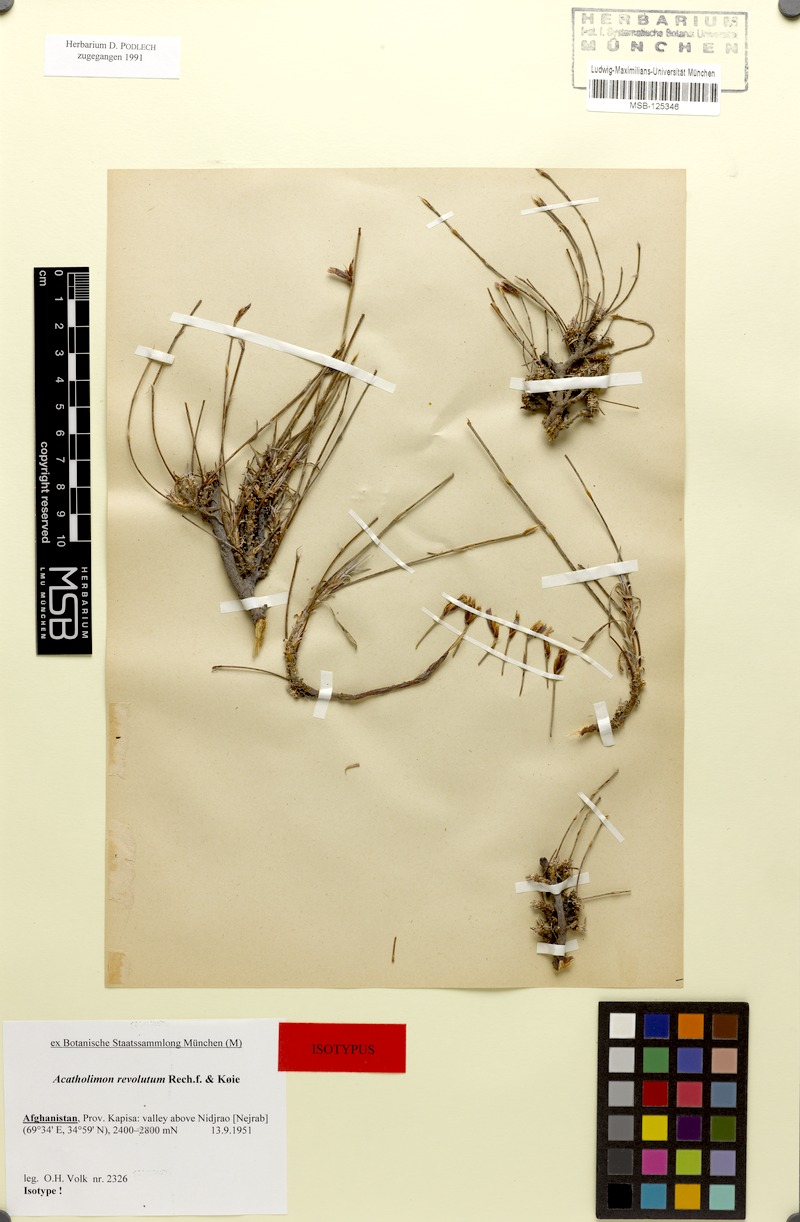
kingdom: Plantae
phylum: Tracheophyta
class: Magnoliopsida
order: Caryophyllales
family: Plumbaginaceae
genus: Acantholimon
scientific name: Acantholimon revolutum
